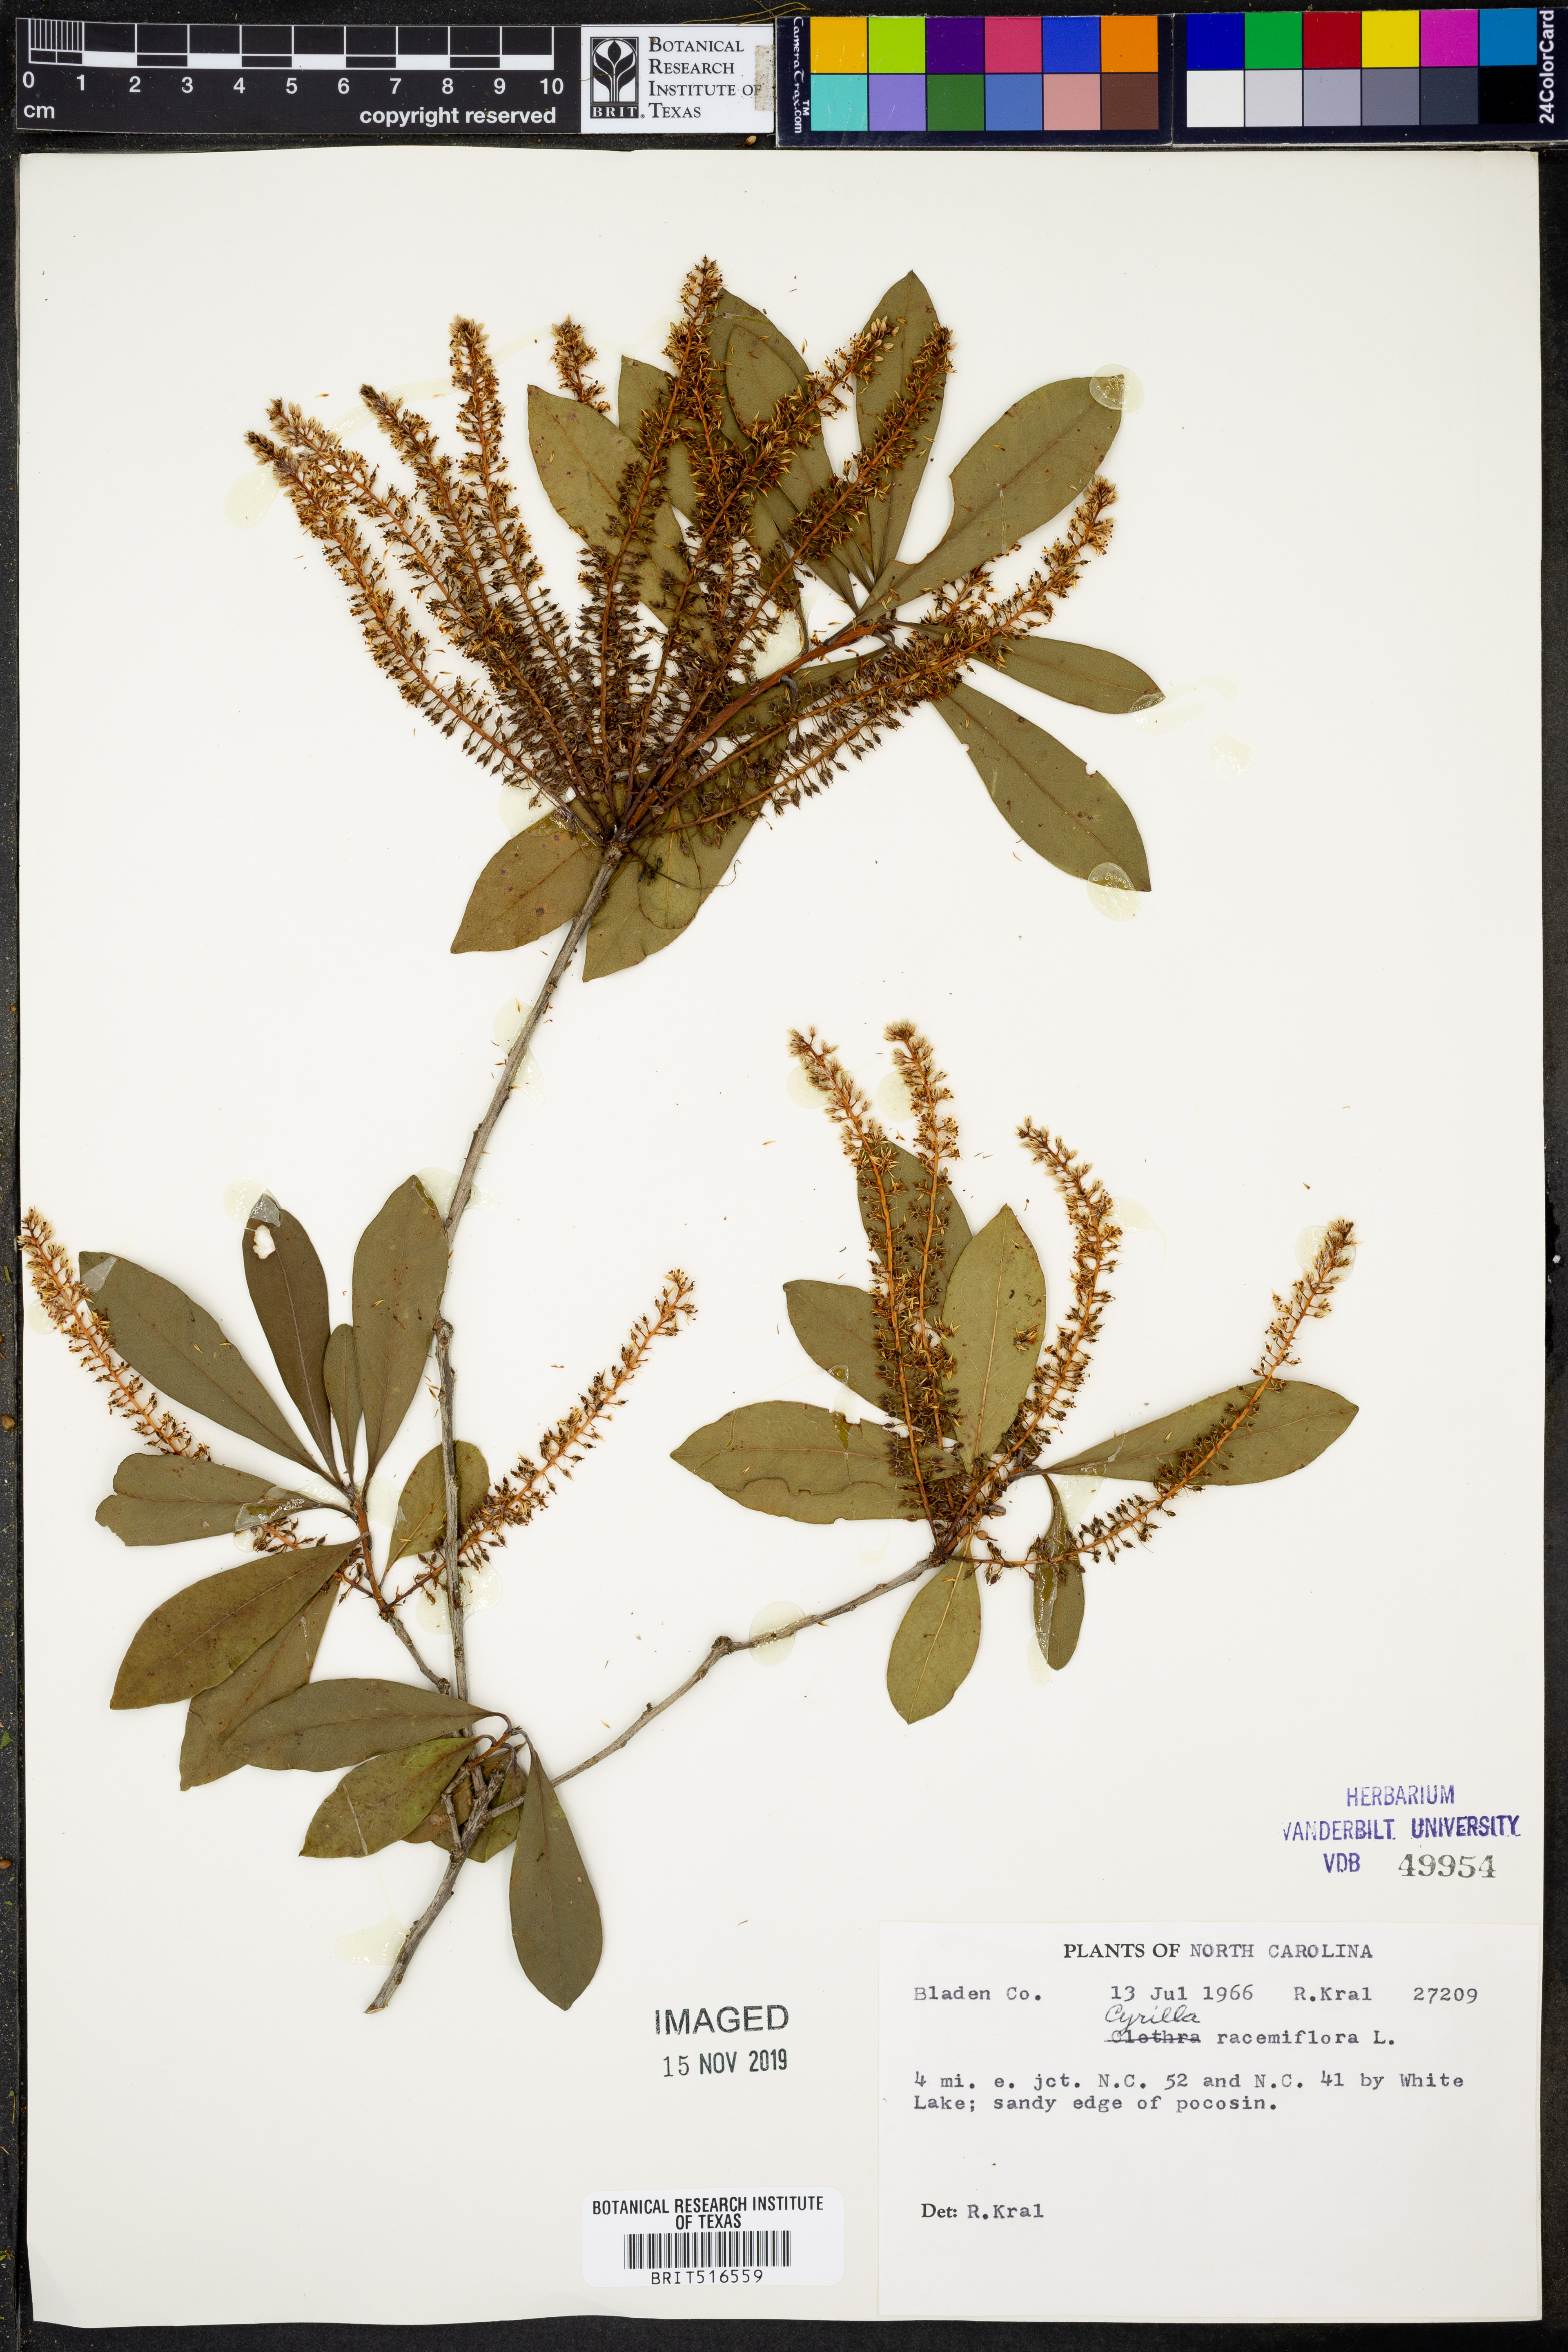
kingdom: Plantae
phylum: Tracheophyta
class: Magnoliopsida
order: Ericales
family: Cyrillaceae
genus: Cyrilla
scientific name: Cyrilla racemiflora
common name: Black titi
